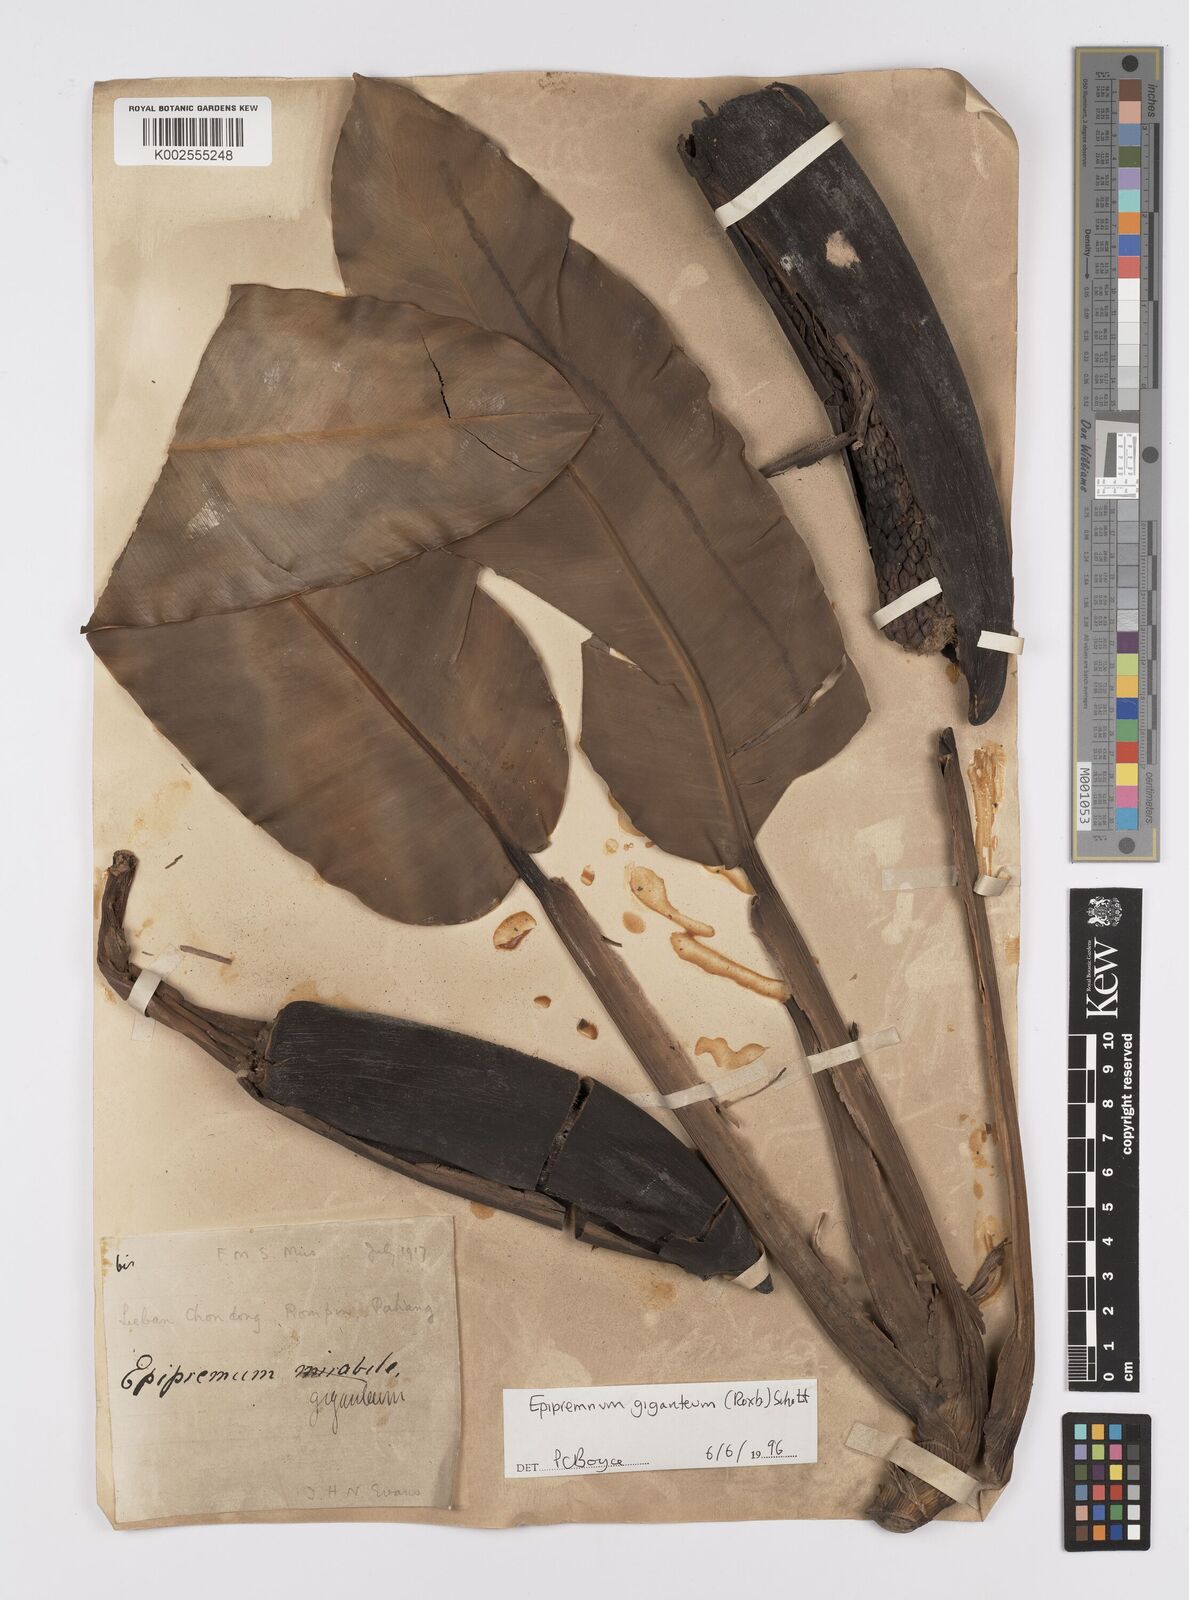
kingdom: Plantae
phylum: Tracheophyta
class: Liliopsida
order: Alismatales
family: Araceae
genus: Epipremnum
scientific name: Epipremnum giganteum
